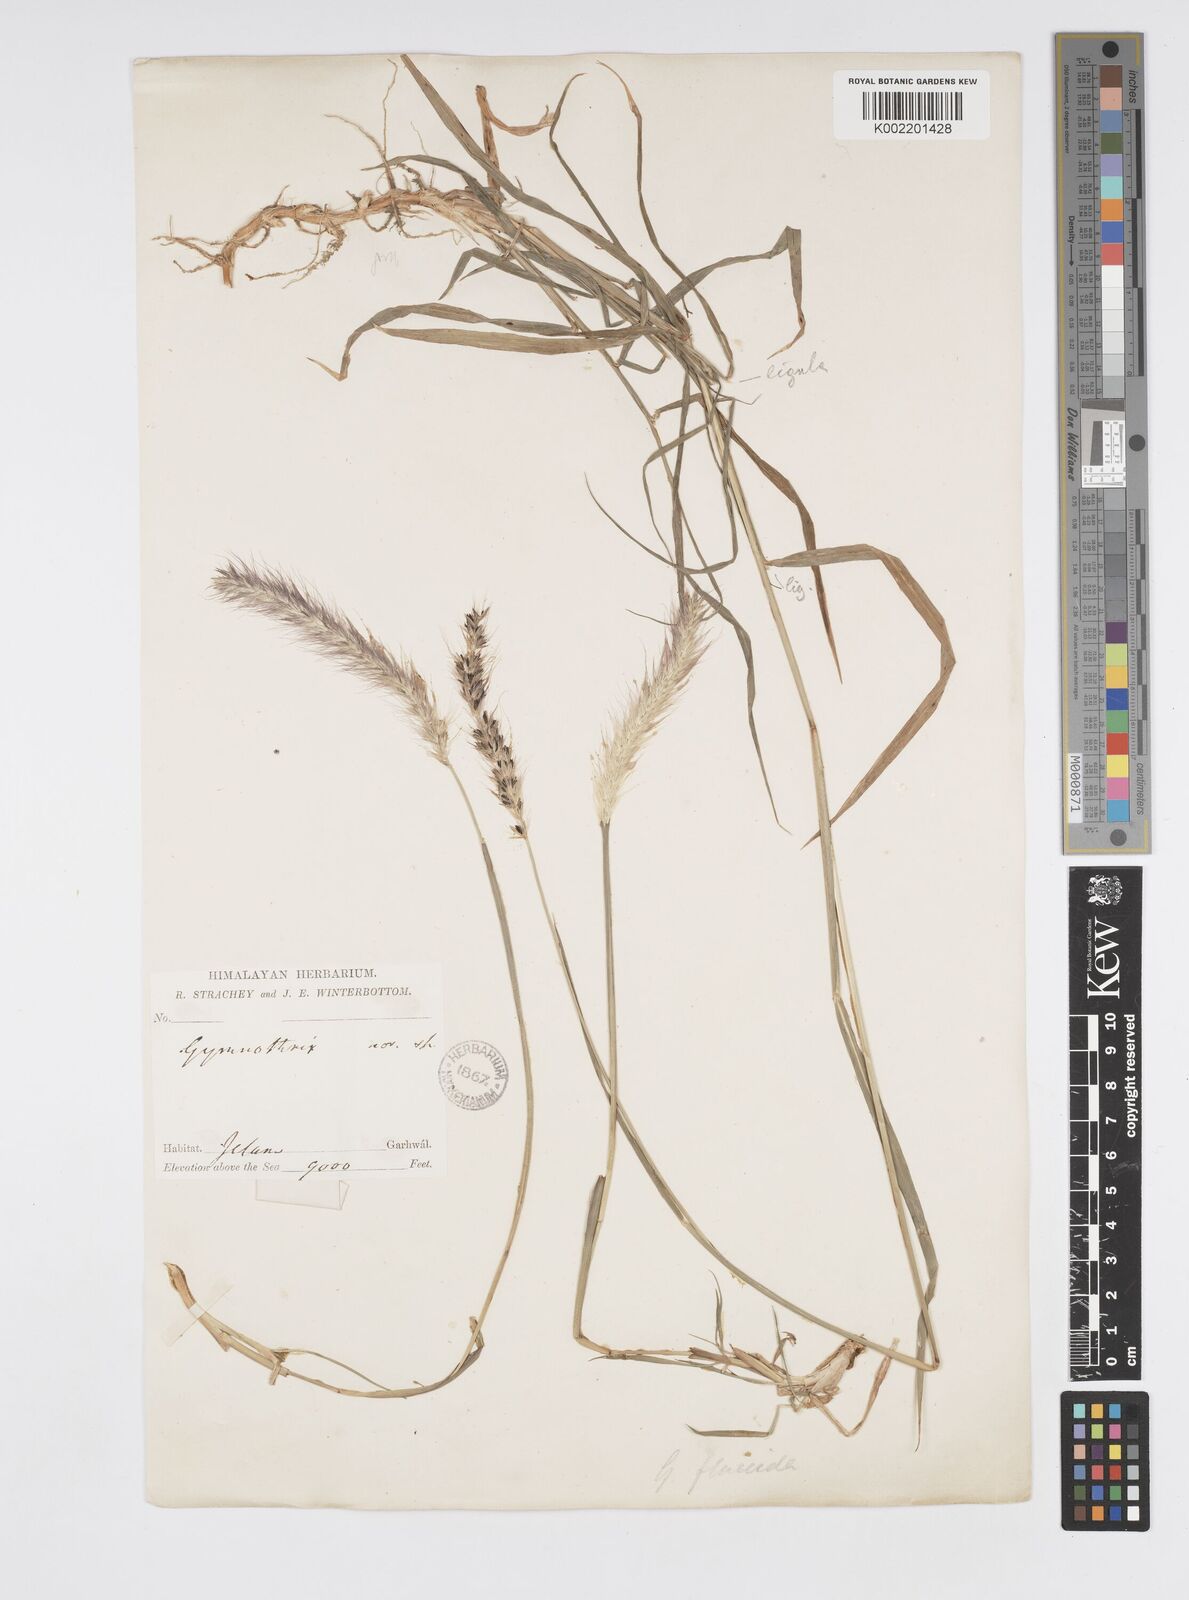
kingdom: Plantae
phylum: Tracheophyta
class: Liliopsida
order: Poales
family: Poaceae
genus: Cenchrus
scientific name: Cenchrus flaccidus
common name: Flaccid grass
